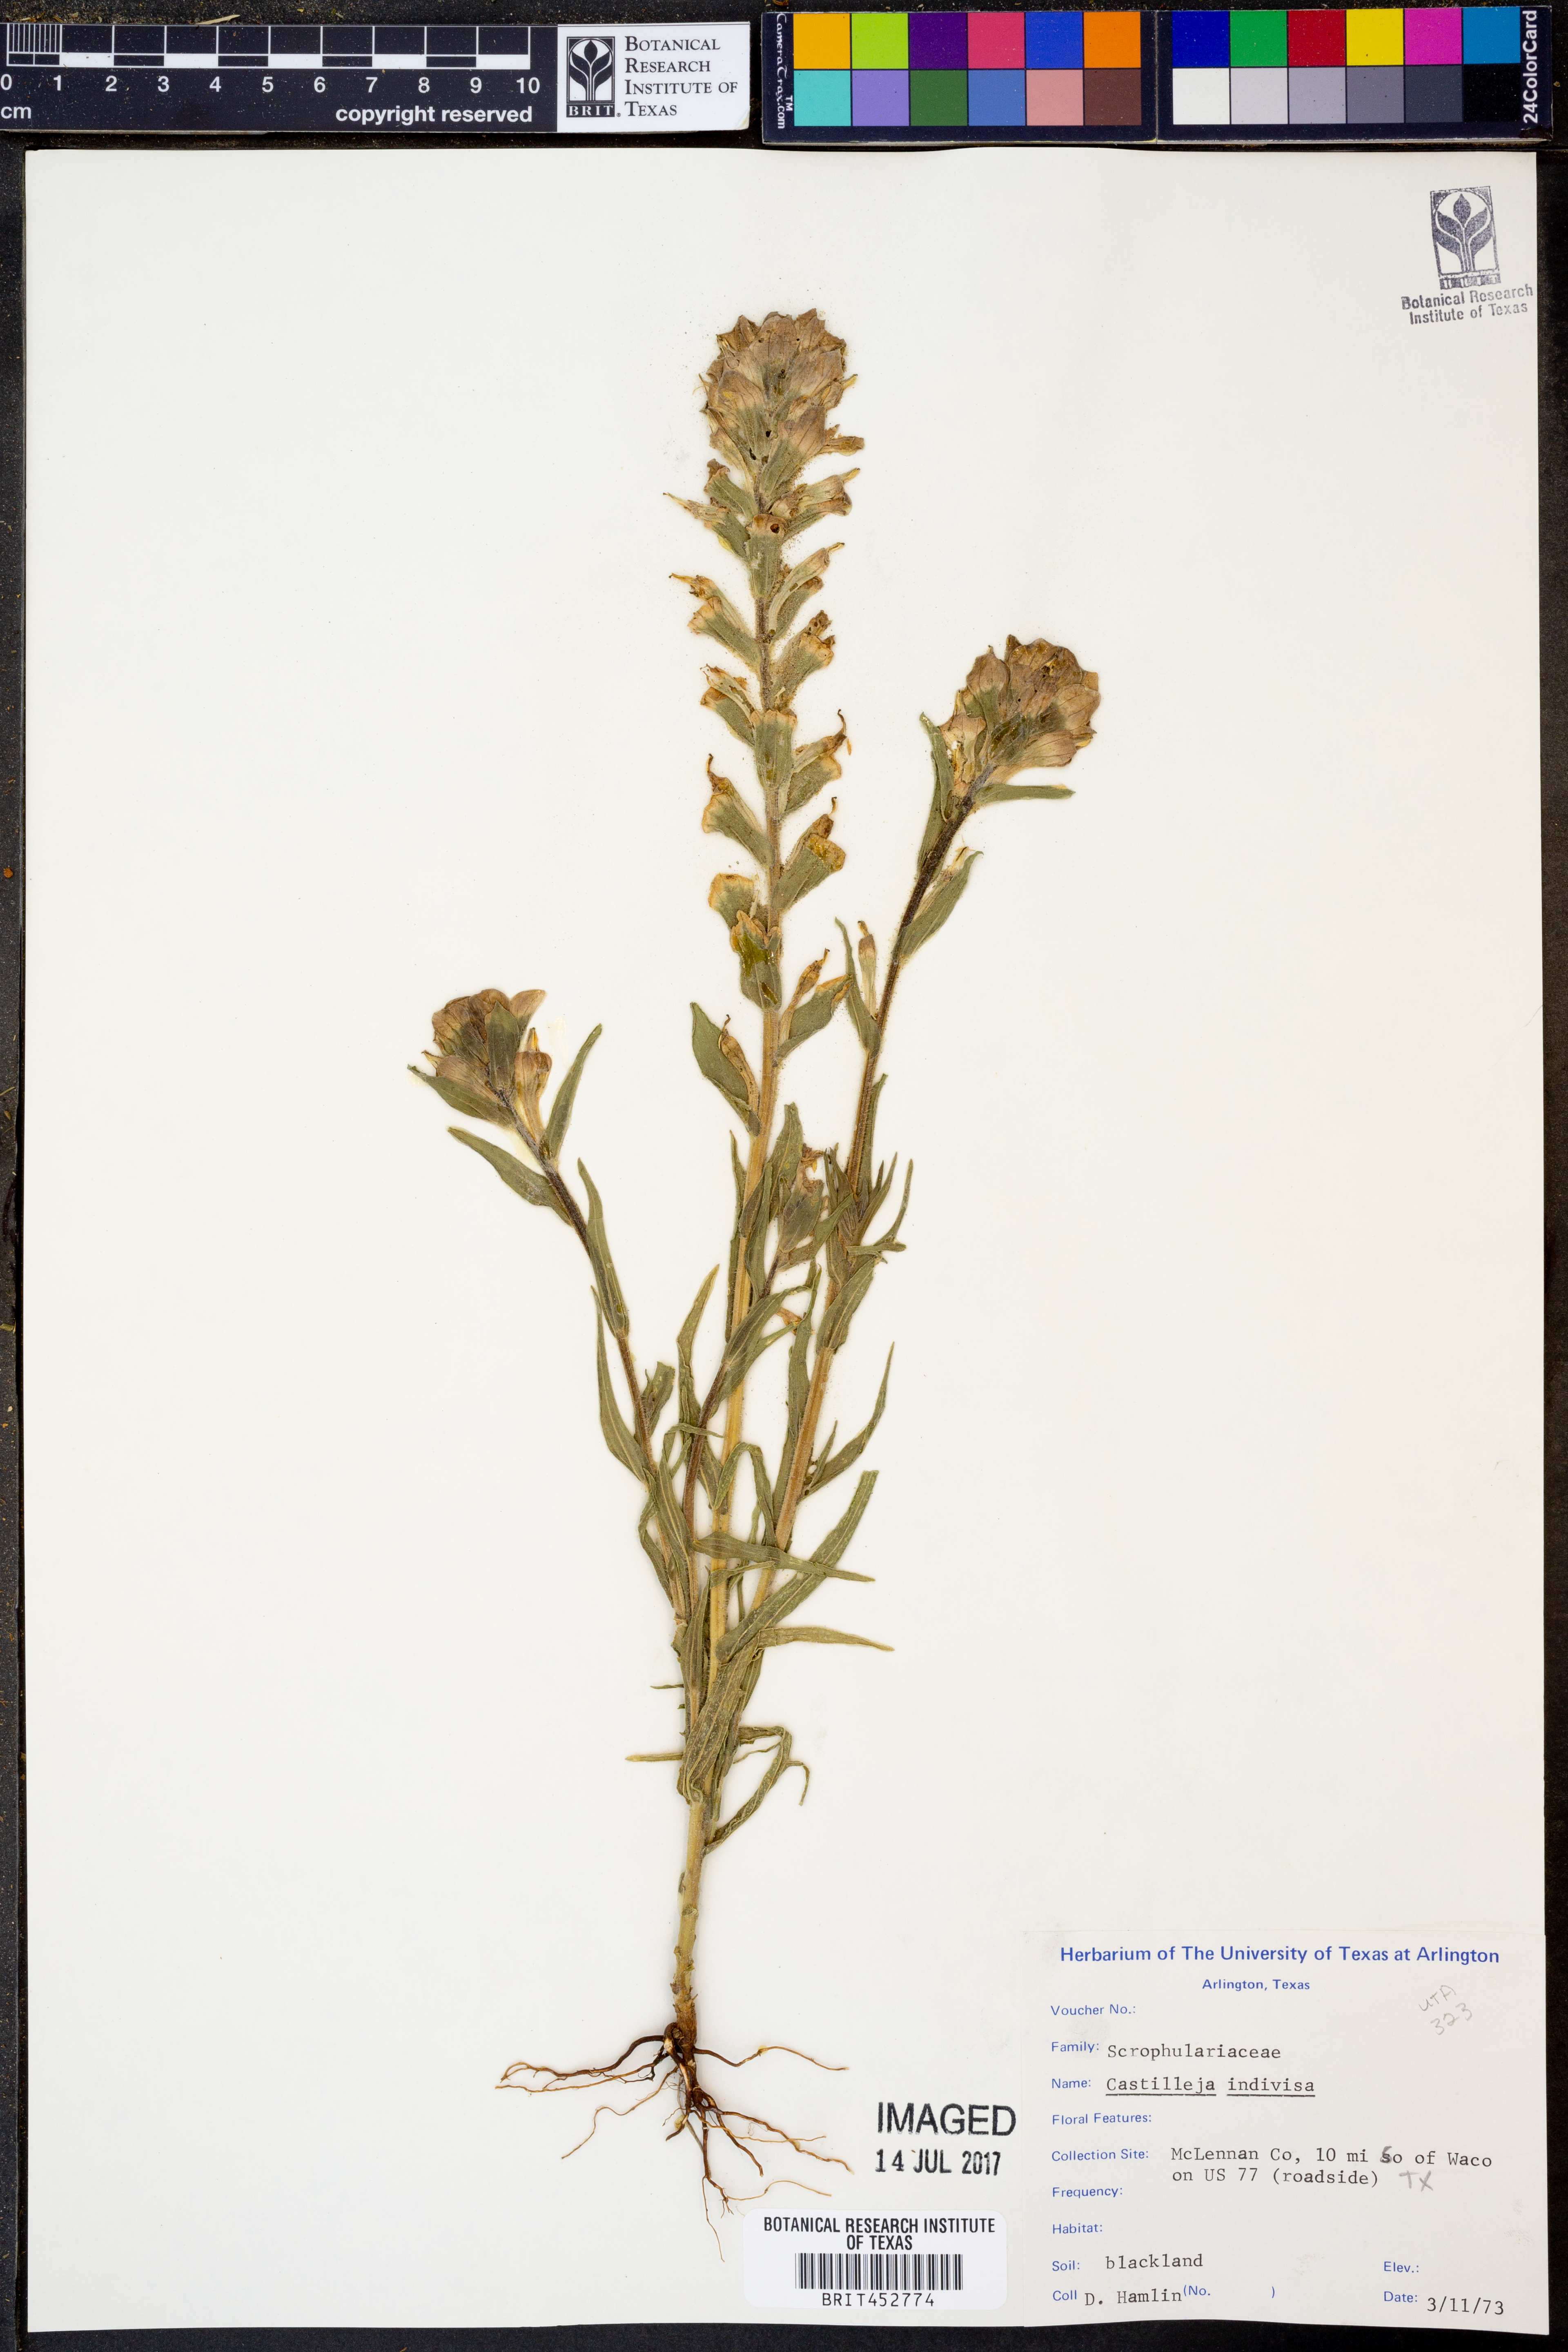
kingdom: Plantae
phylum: Tracheophyta
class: Magnoliopsida
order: Lamiales
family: Orobanchaceae
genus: Castilleja
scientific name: Castilleja indivisa
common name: Texas paintbrush
